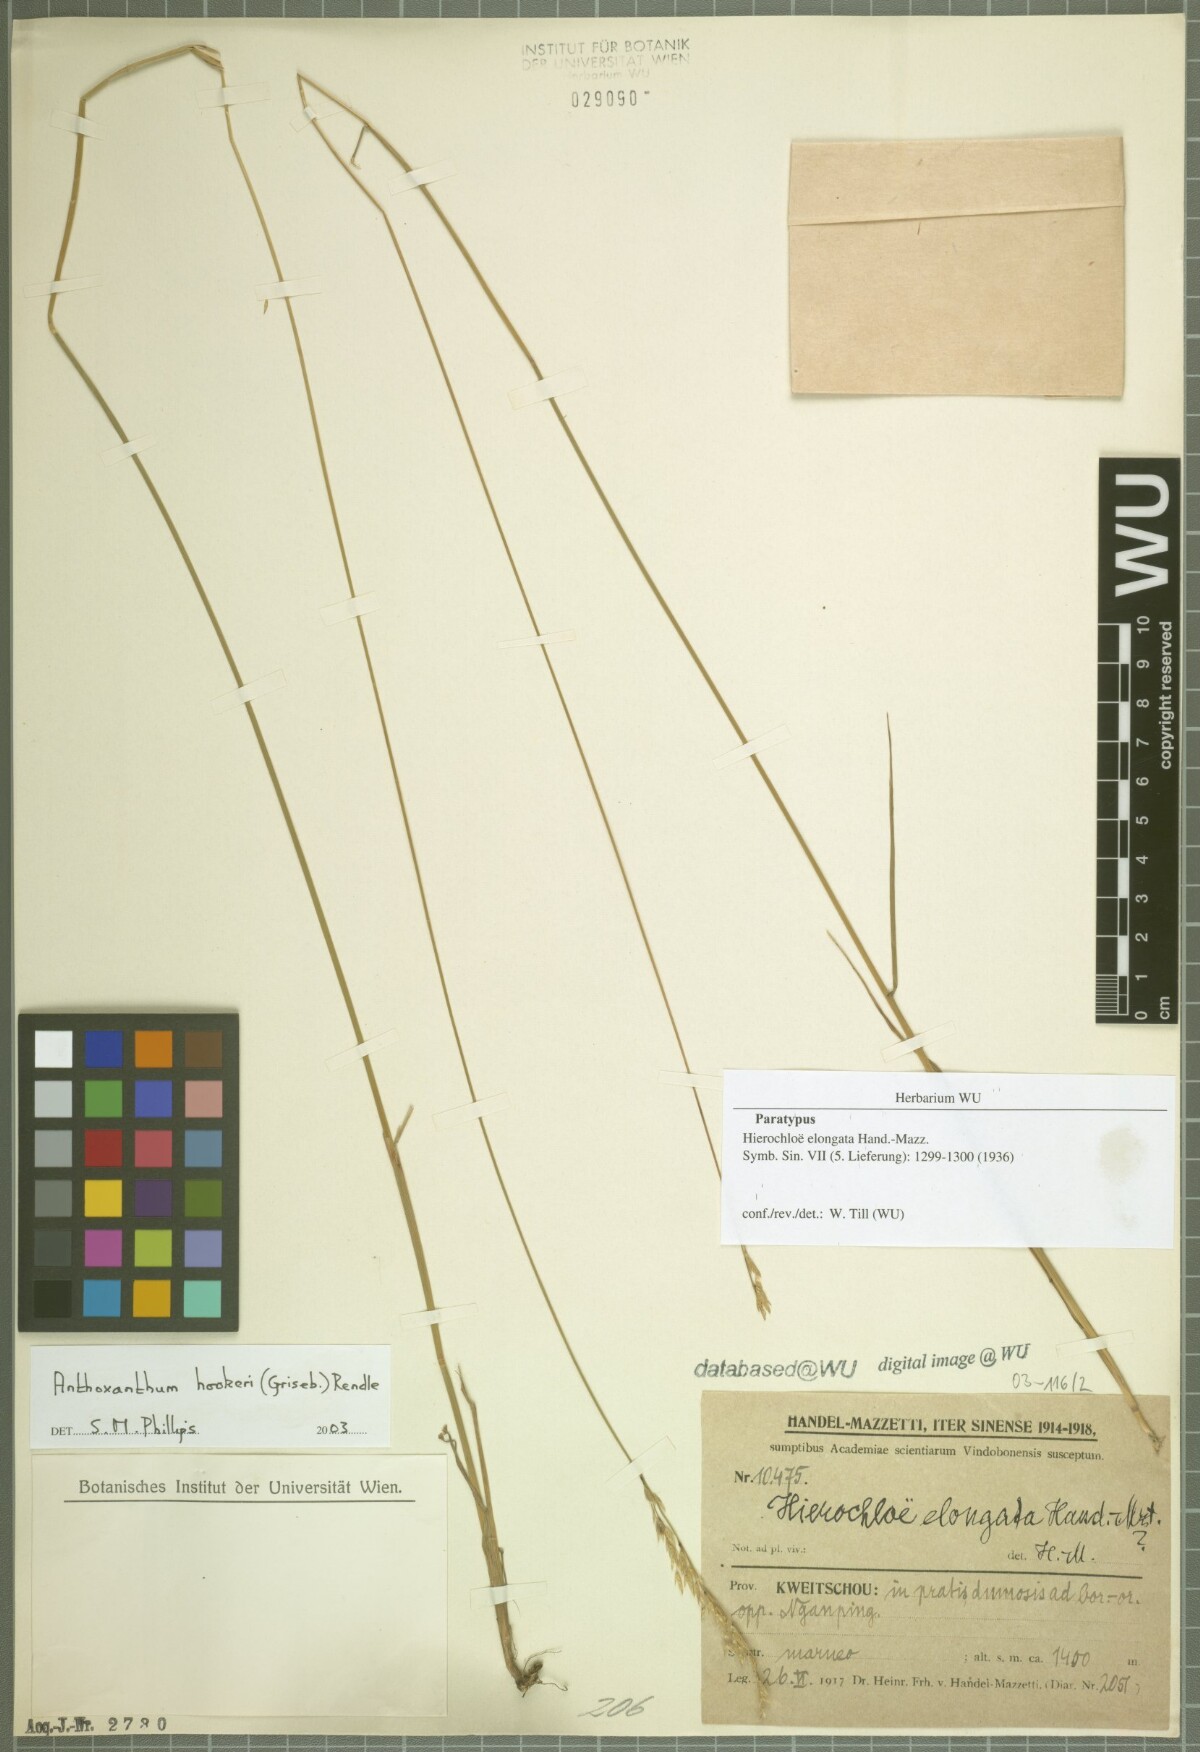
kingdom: Plantae
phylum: Tracheophyta
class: Liliopsida
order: Poales
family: Poaceae
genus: Anthoxanthum
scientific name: Anthoxanthum hookeri
